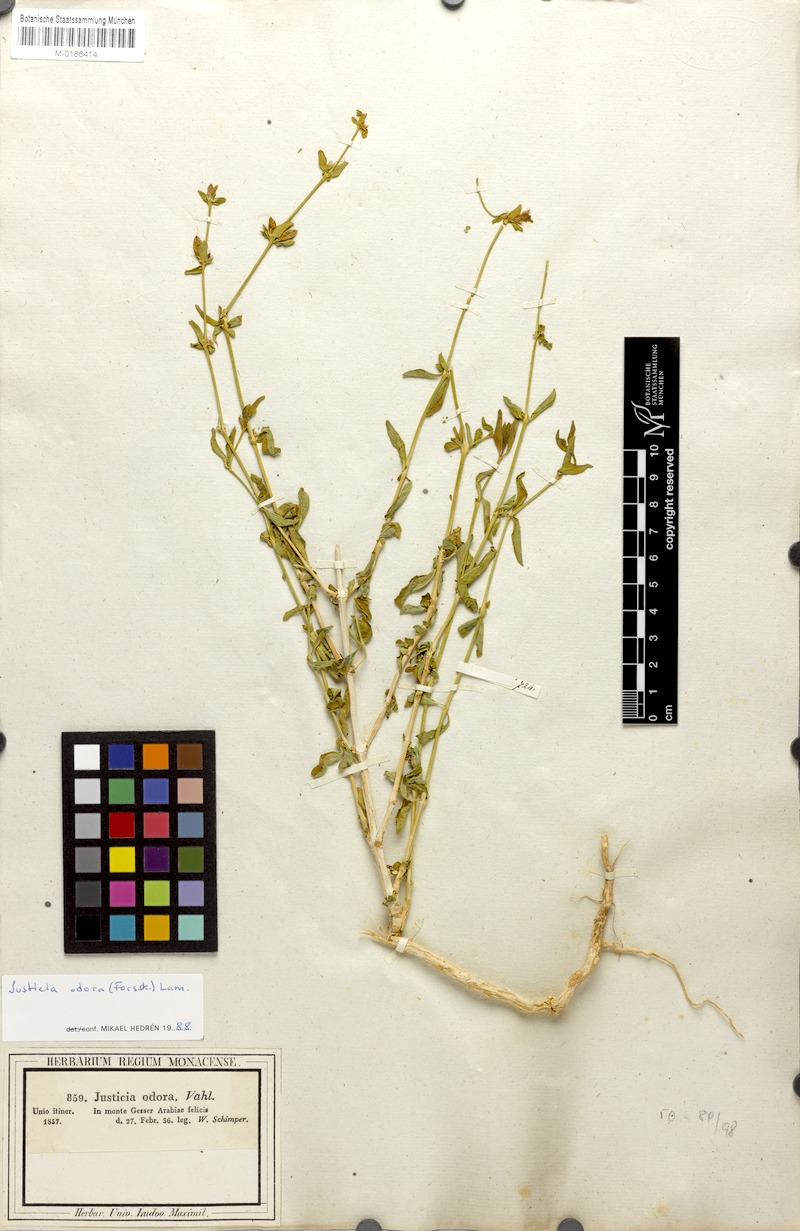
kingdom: Plantae
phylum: Tracheophyta
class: Magnoliopsida
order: Lamiales
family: Acanthaceae
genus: Justicia
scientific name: Justicia odora
